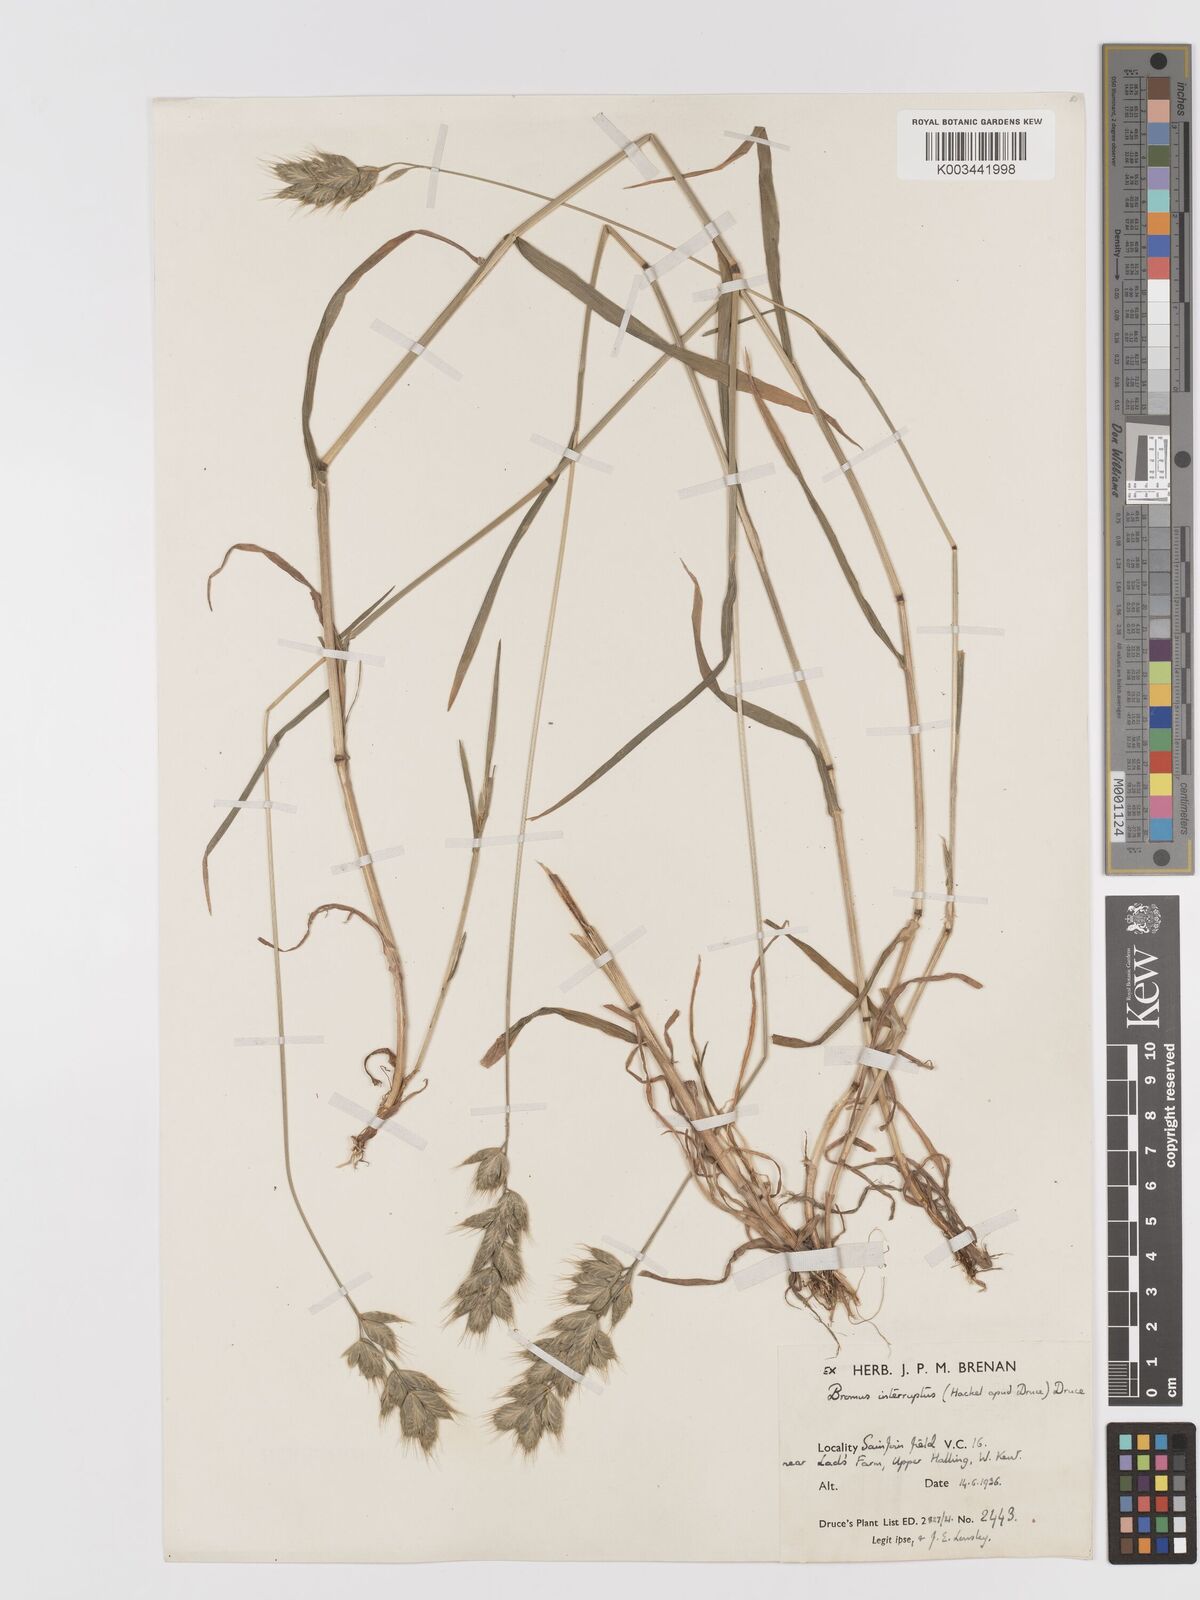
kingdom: Plantae
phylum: Tracheophyta
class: Liliopsida
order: Poales
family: Poaceae
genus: Bromus
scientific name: Bromus interruptus
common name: Interrupted brome
